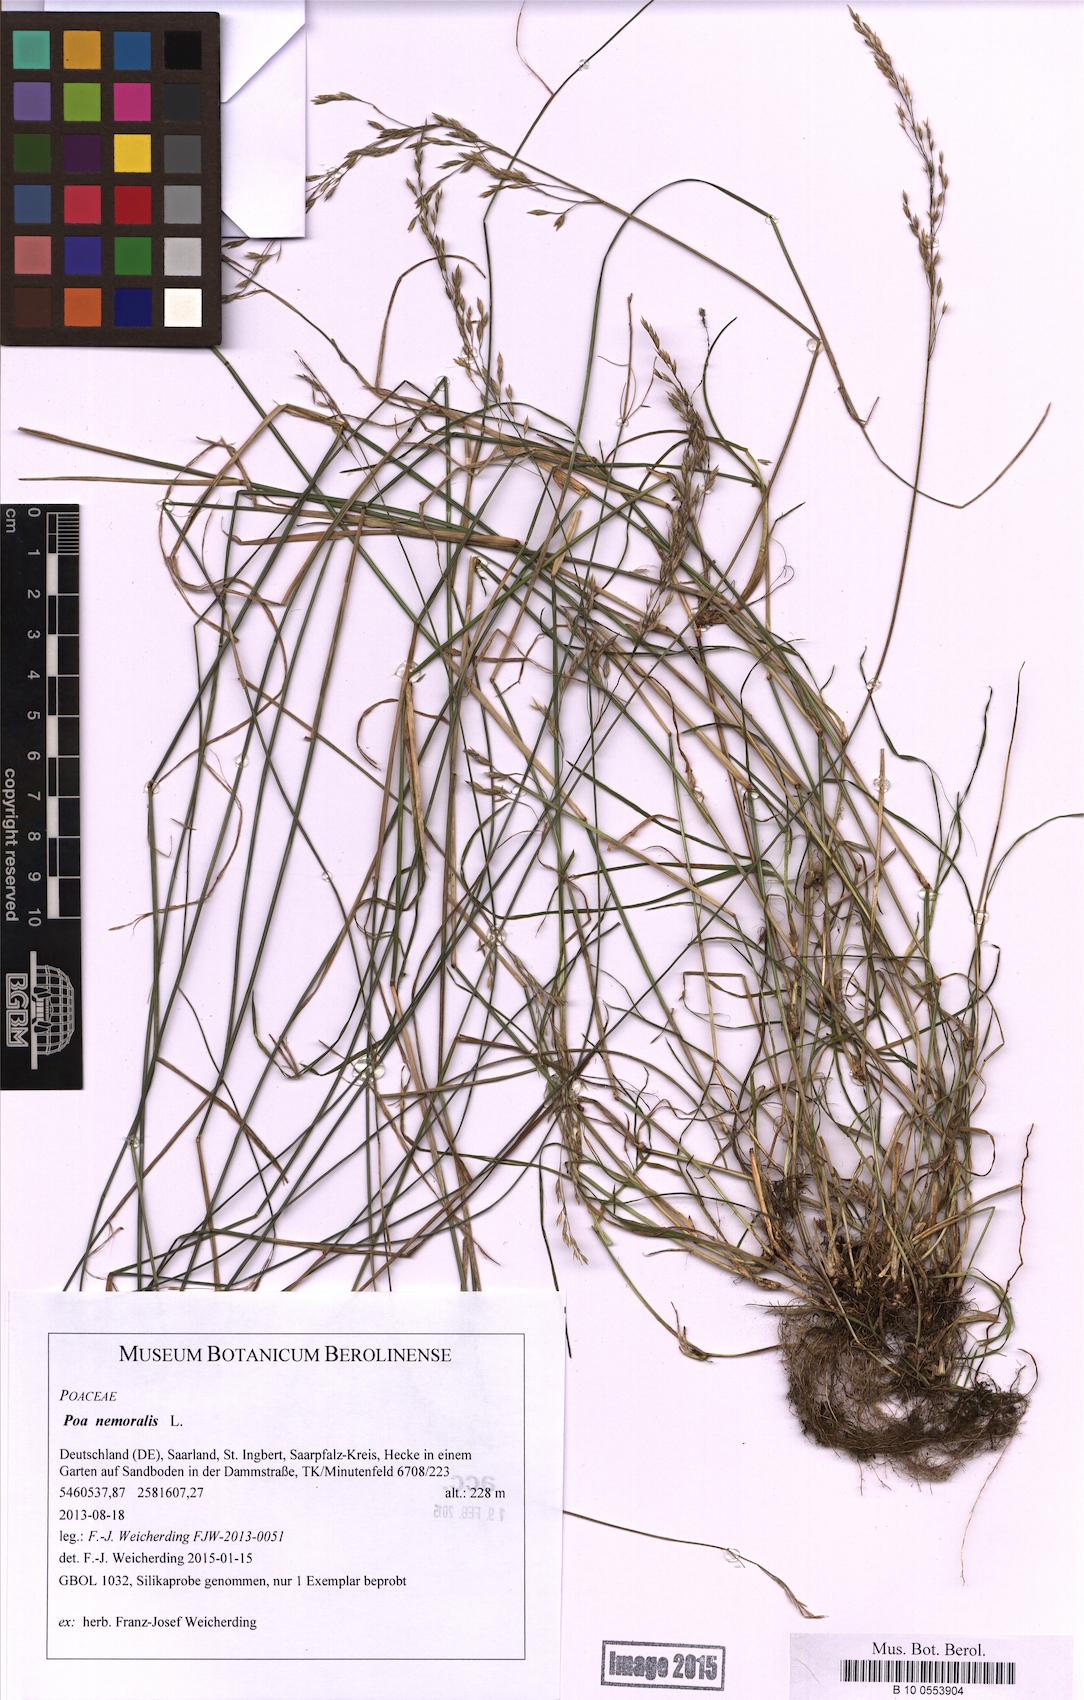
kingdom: Plantae
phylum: Tracheophyta
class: Liliopsida
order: Poales
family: Poaceae
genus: Poa
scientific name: Poa nemoralis
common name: Wood bluegrass
